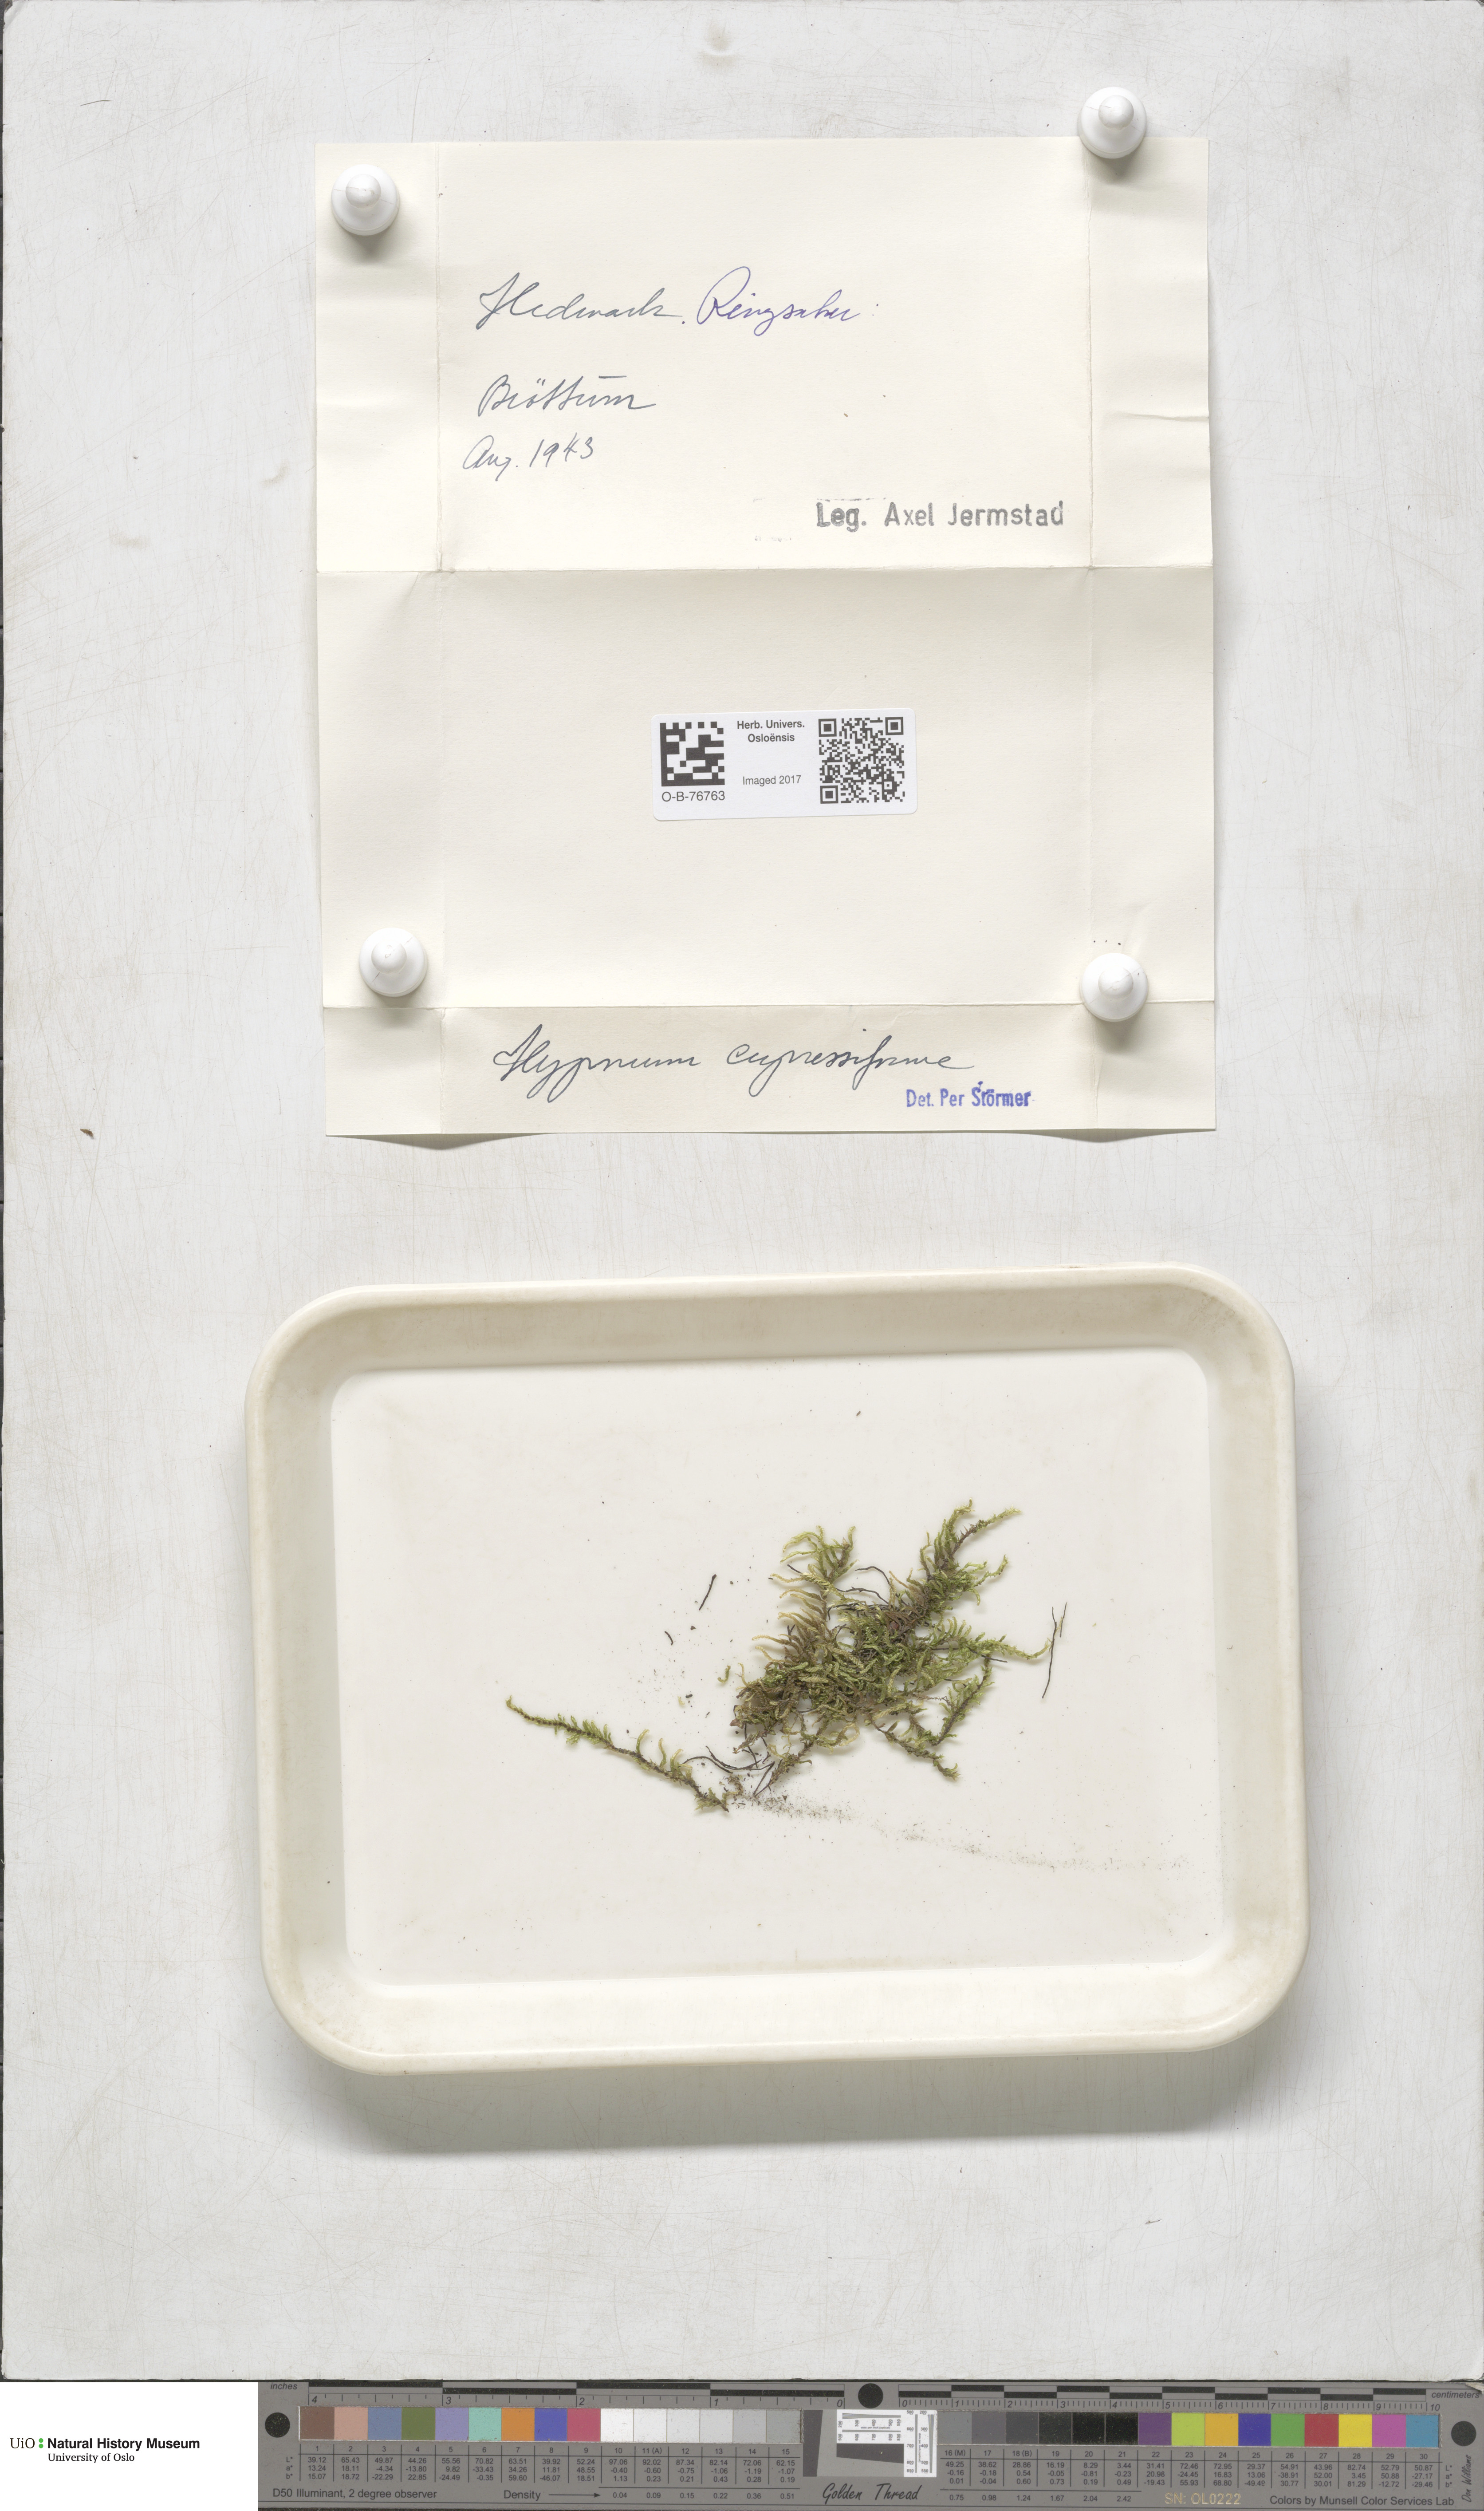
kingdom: Plantae
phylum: Bryophyta
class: Bryopsida
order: Hypnales
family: Hypnaceae
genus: Hypnum
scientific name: Hypnum cupressiforme
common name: Cypress-leaved plait-moss
